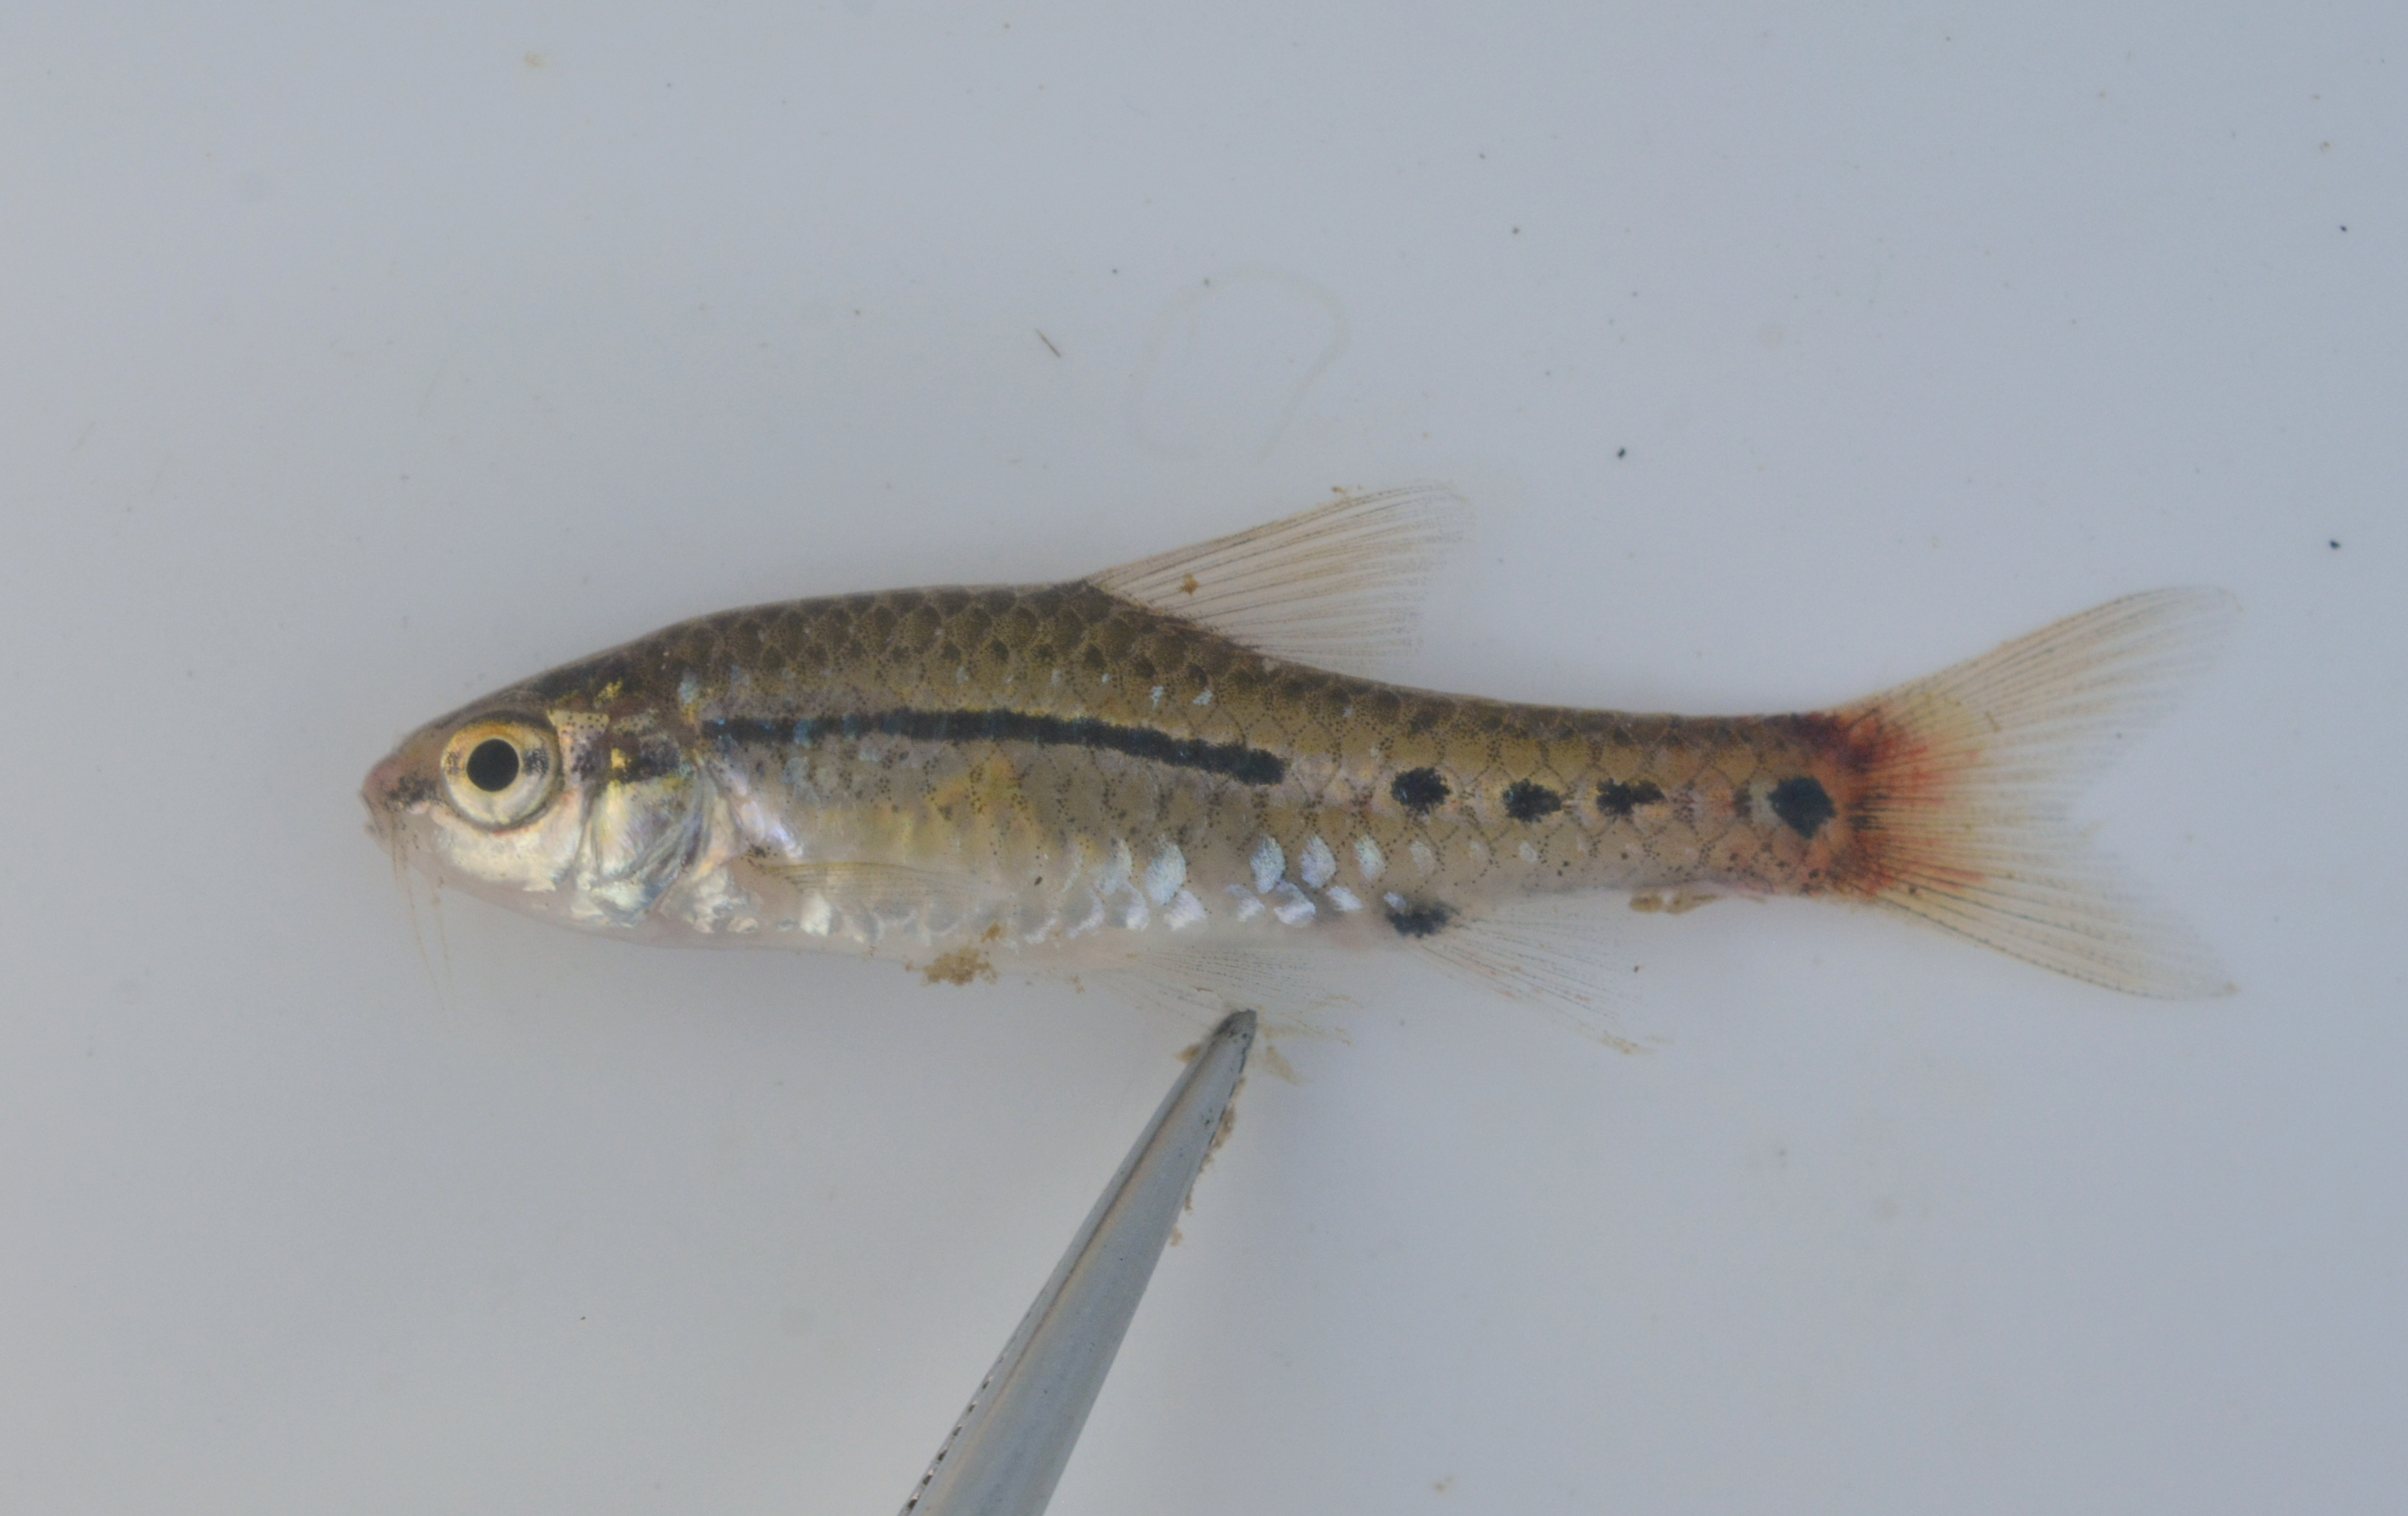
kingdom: Animalia
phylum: Chordata
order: Cypriniformes
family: Cyprinidae
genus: Enteromius
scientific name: Enteromius
